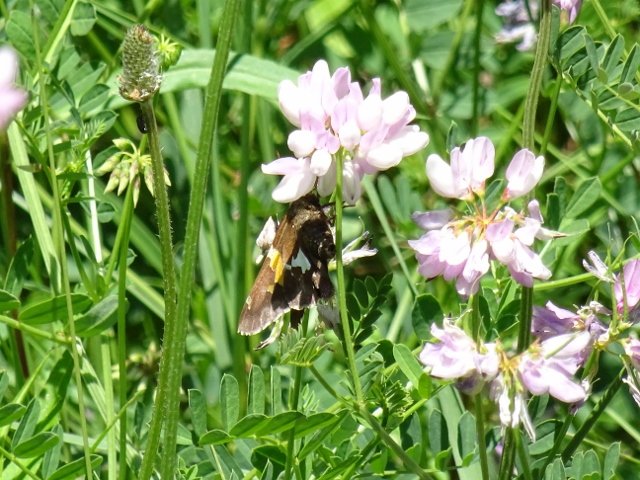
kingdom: Animalia
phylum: Arthropoda
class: Insecta
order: Lepidoptera
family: Hesperiidae
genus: Epargyreus
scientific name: Epargyreus clarus
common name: Silver-spotted Skipper
